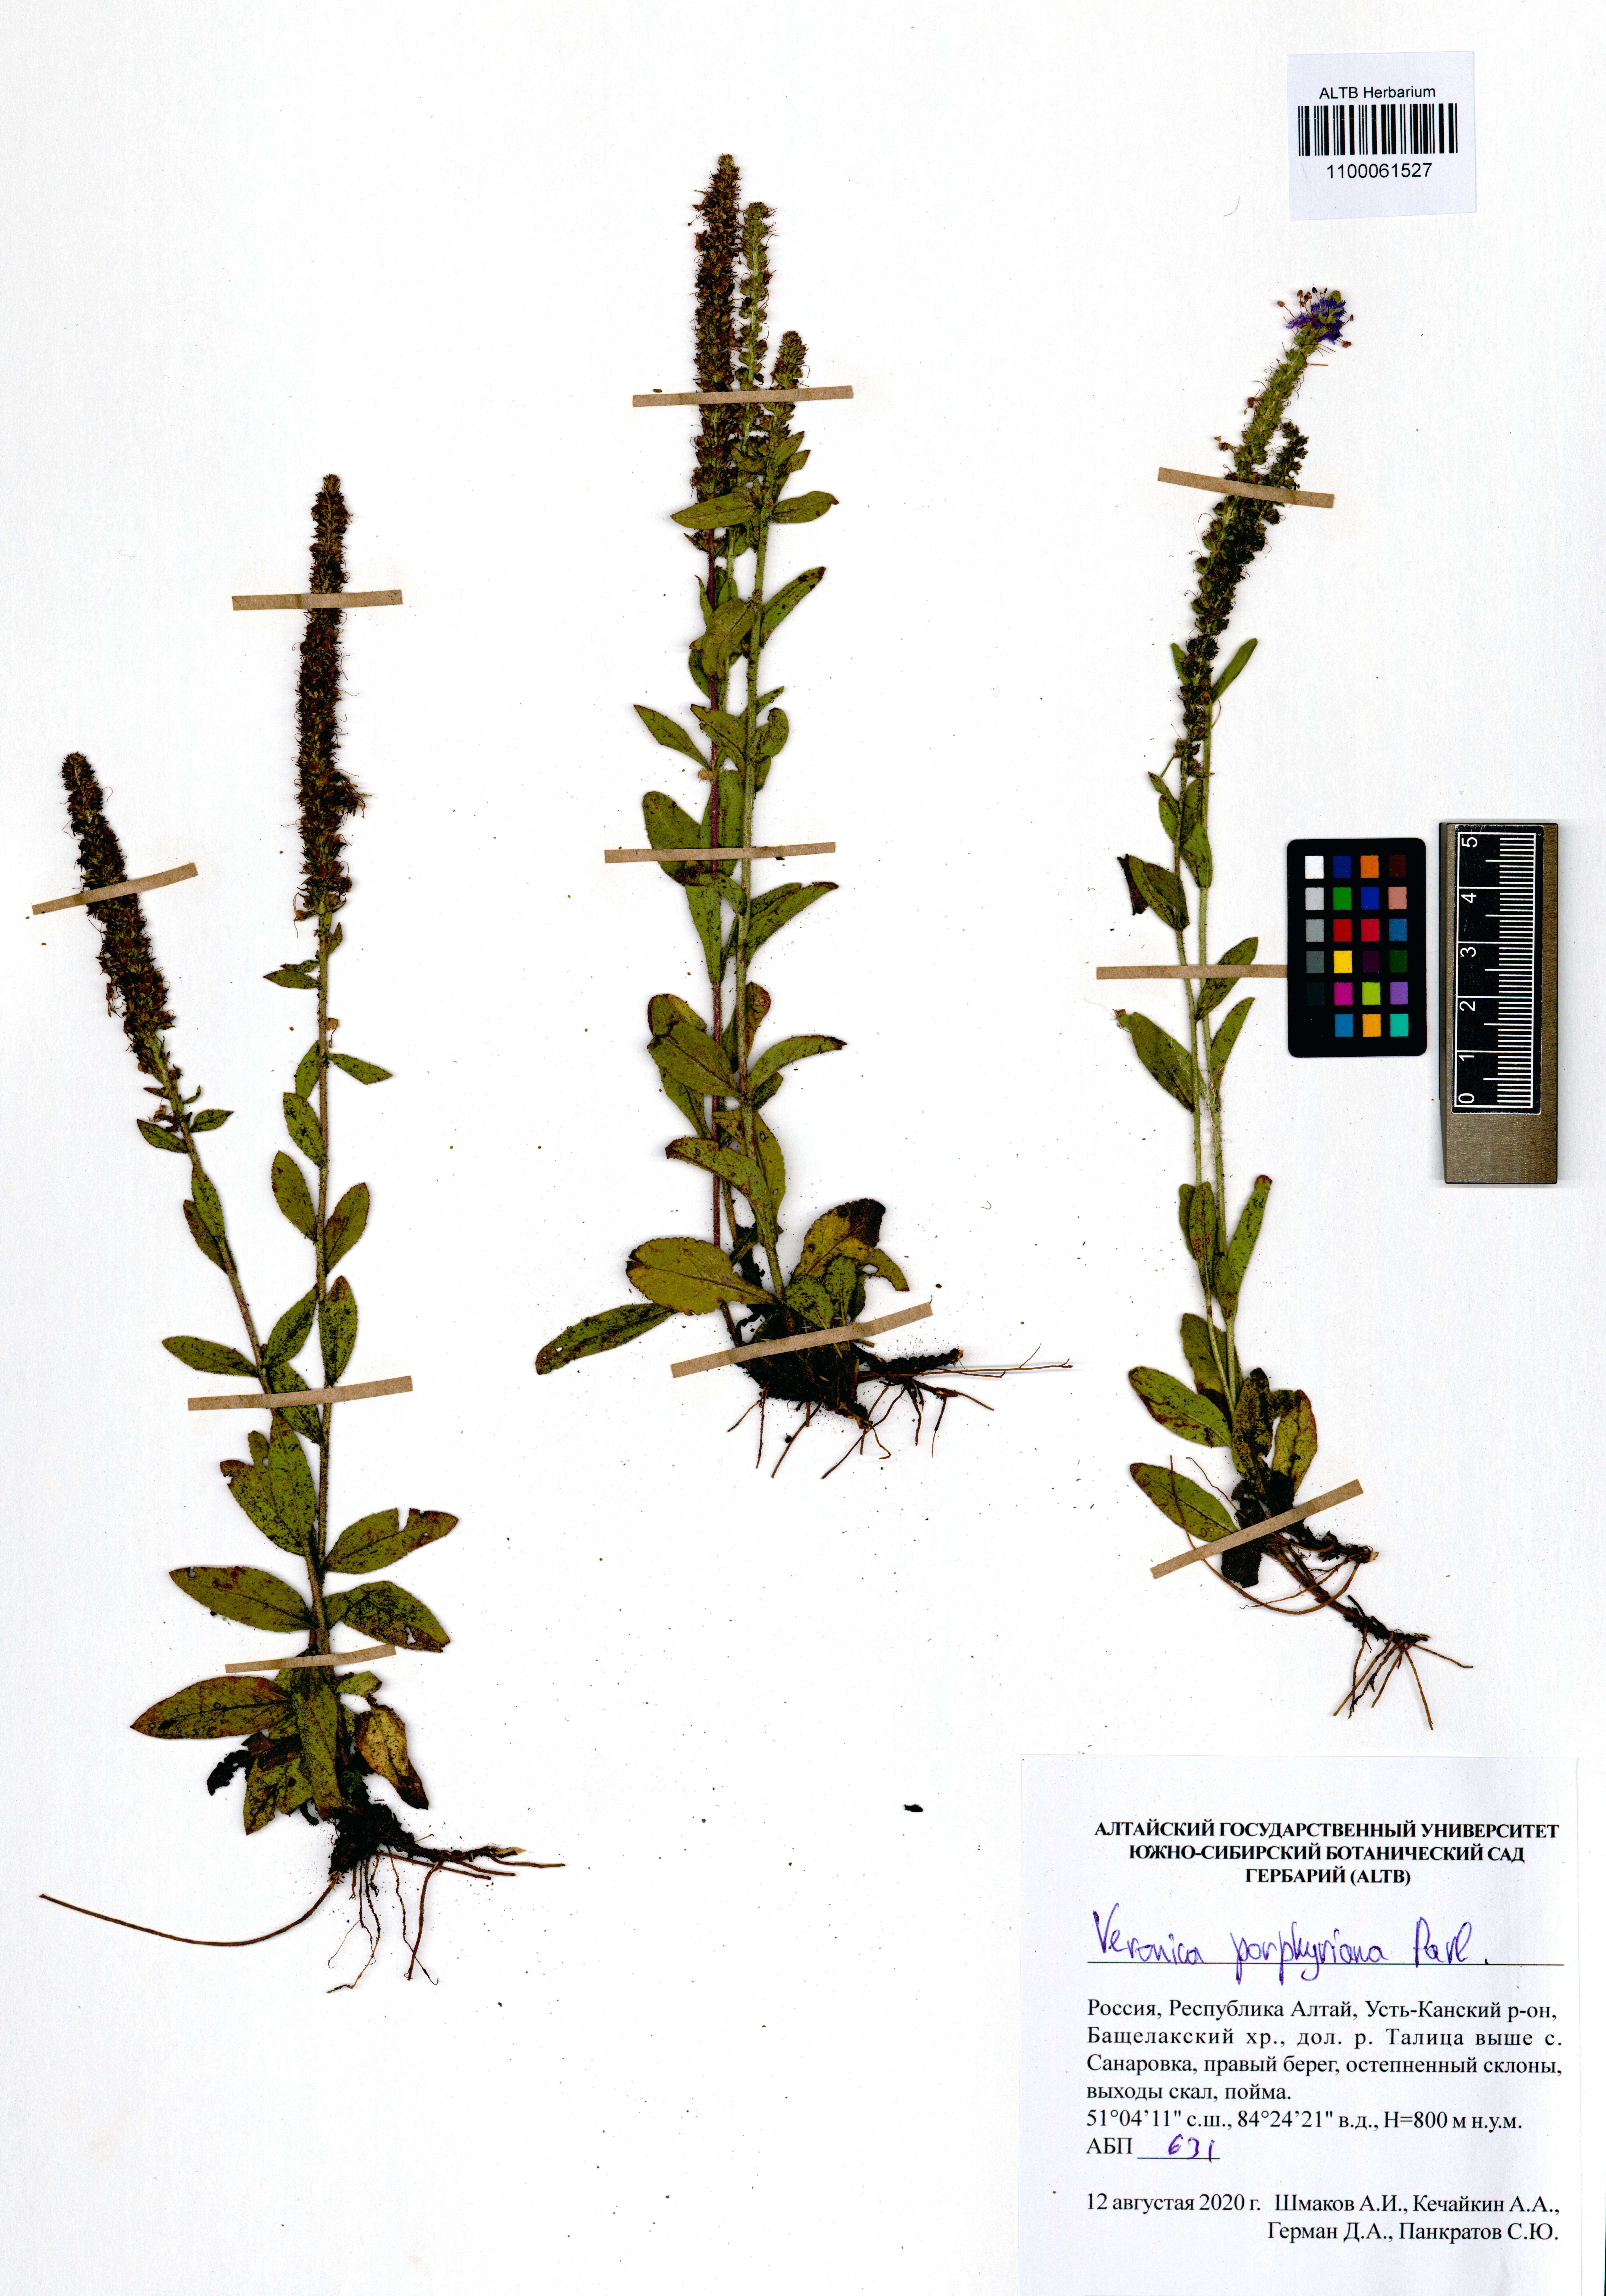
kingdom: Plantae
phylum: Tracheophyta
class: Magnoliopsida
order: Lamiales
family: Plantaginaceae
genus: Veronica
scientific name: Veronica porphyriana
